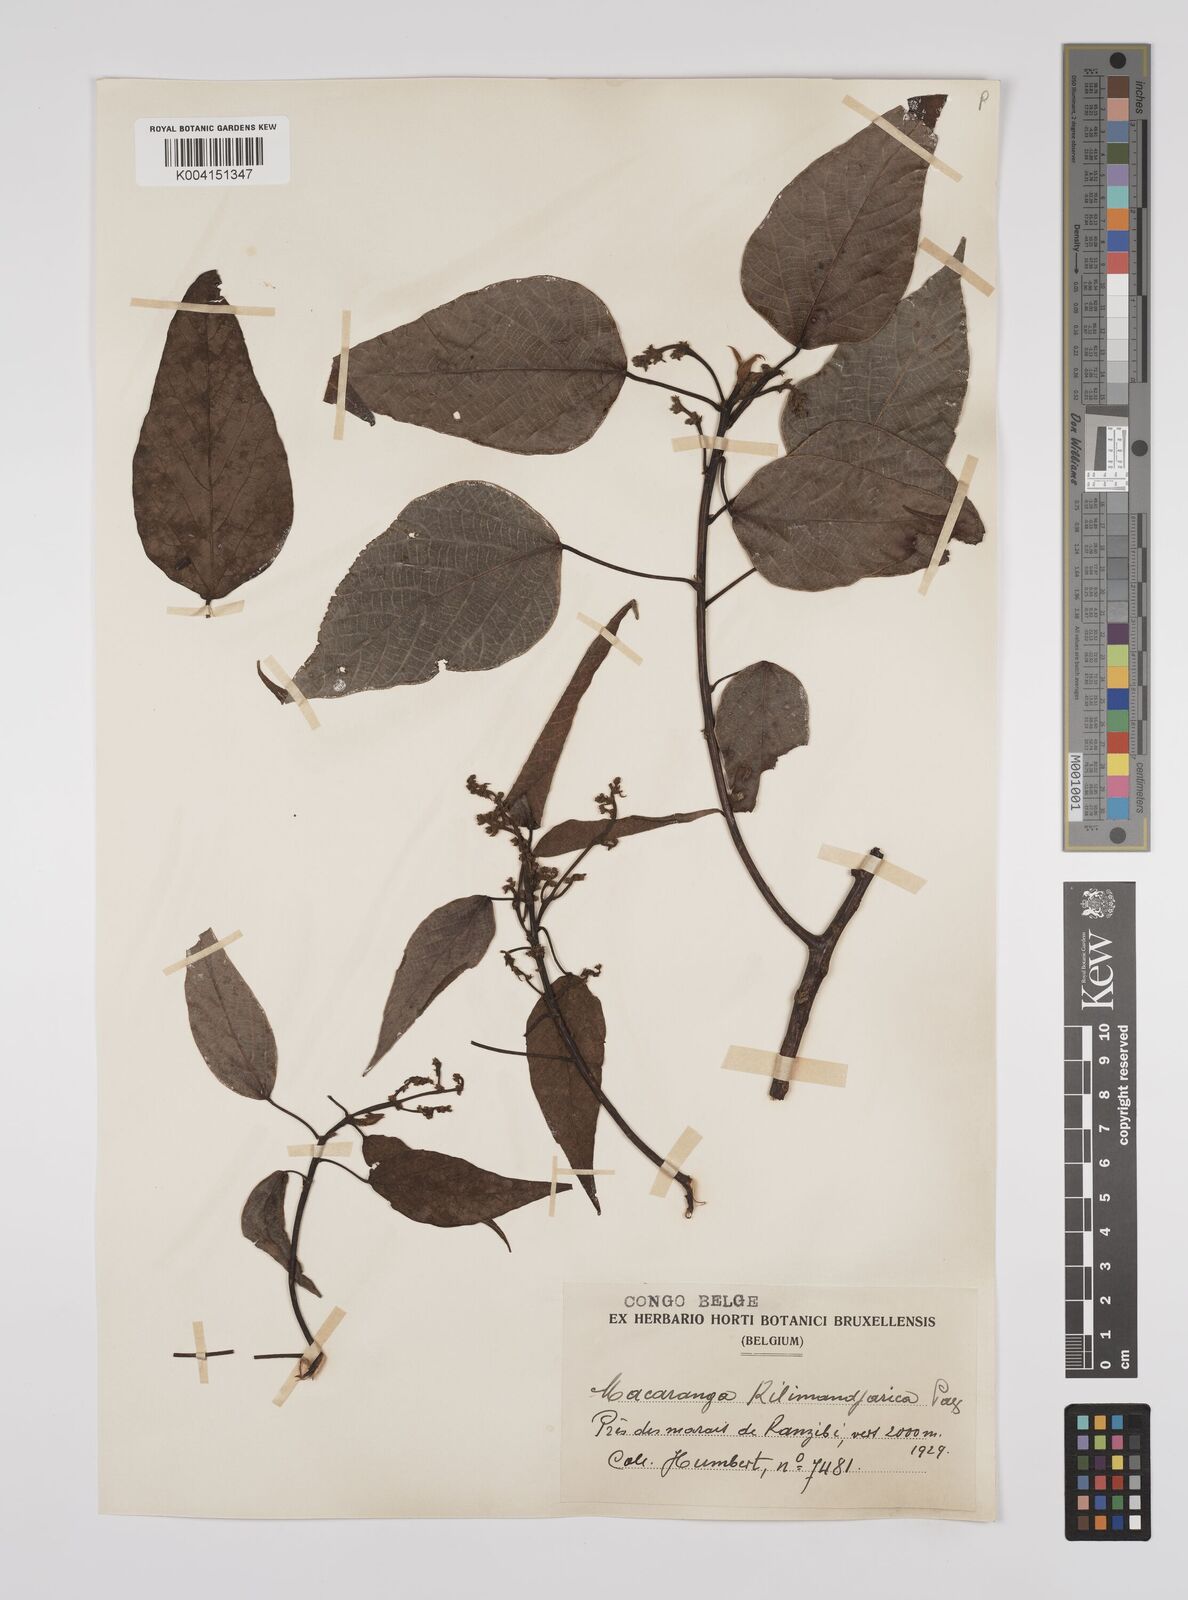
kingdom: Plantae
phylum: Tracheophyta
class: Magnoliopsida
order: Malpighiales
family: Euphorbiaceae
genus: Macaranga
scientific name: Macaranga kilimandscharica
